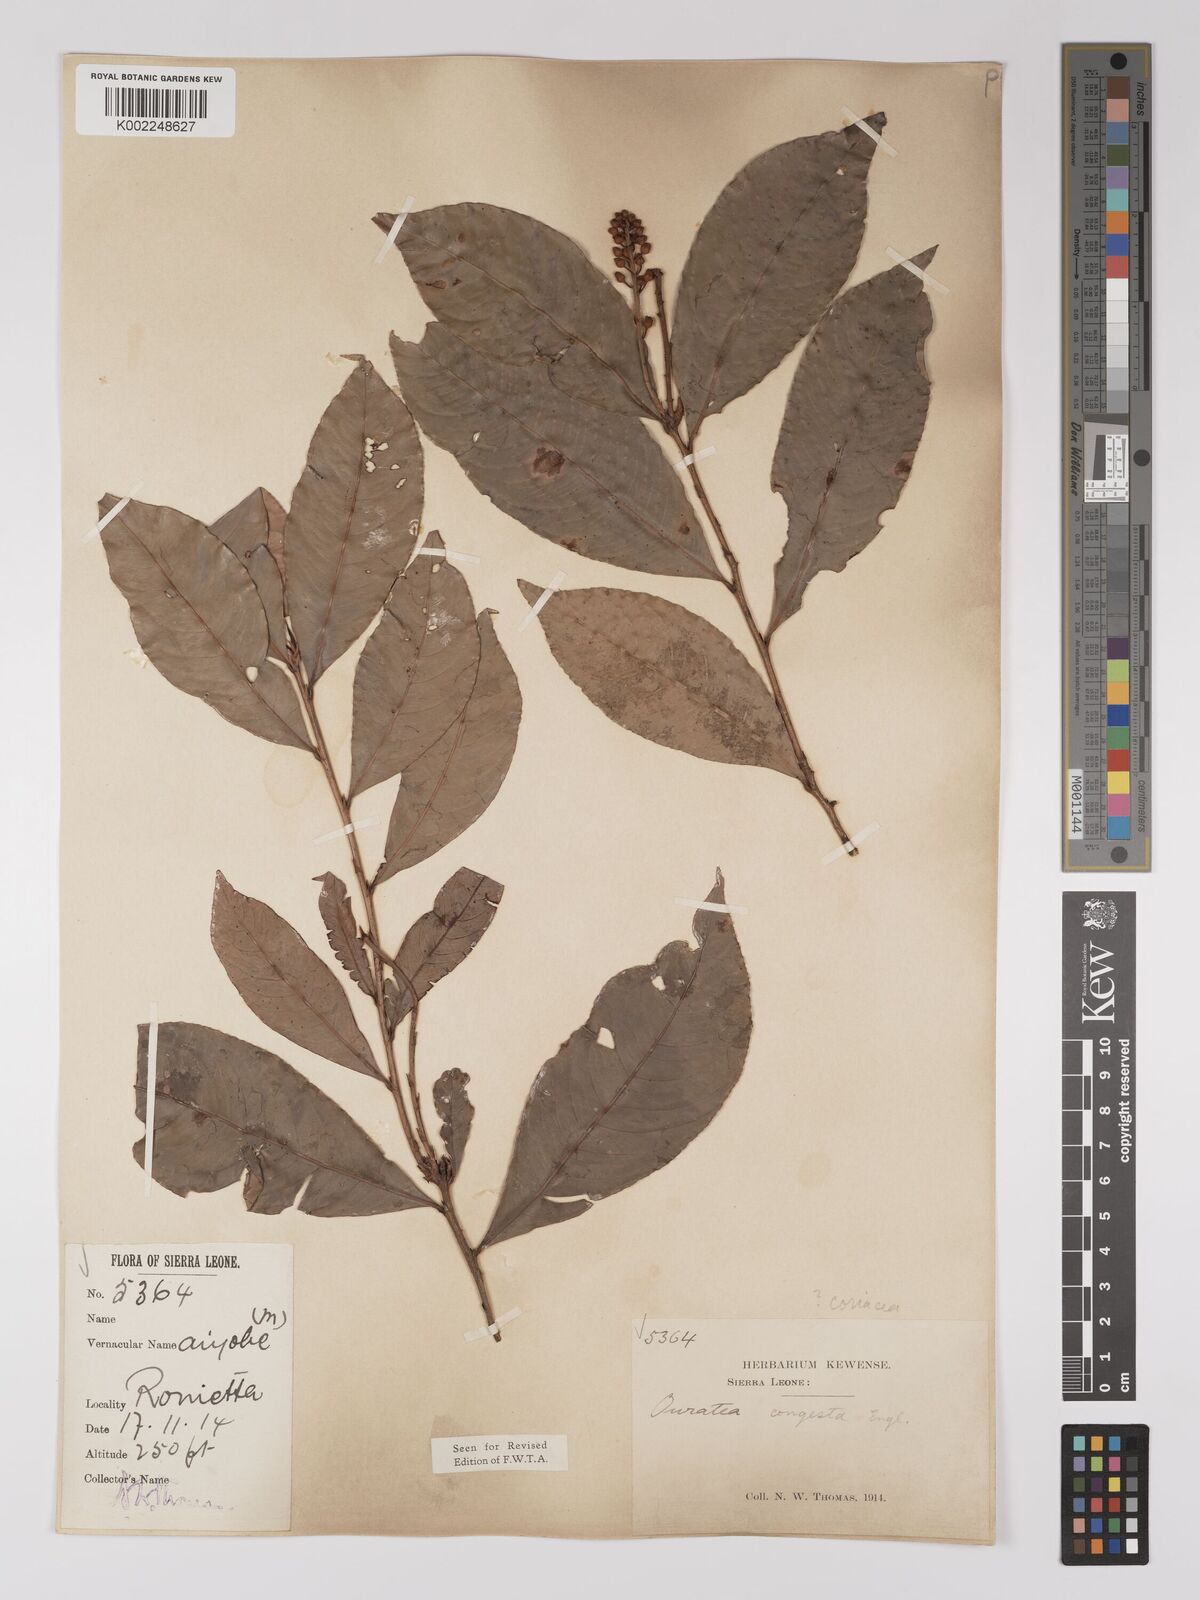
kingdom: Plantae
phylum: Tracheophyta
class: Magnoliopsida
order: Malpighiales
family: Ochnaceae
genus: Campylospermum
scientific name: Campylospermum congestum
